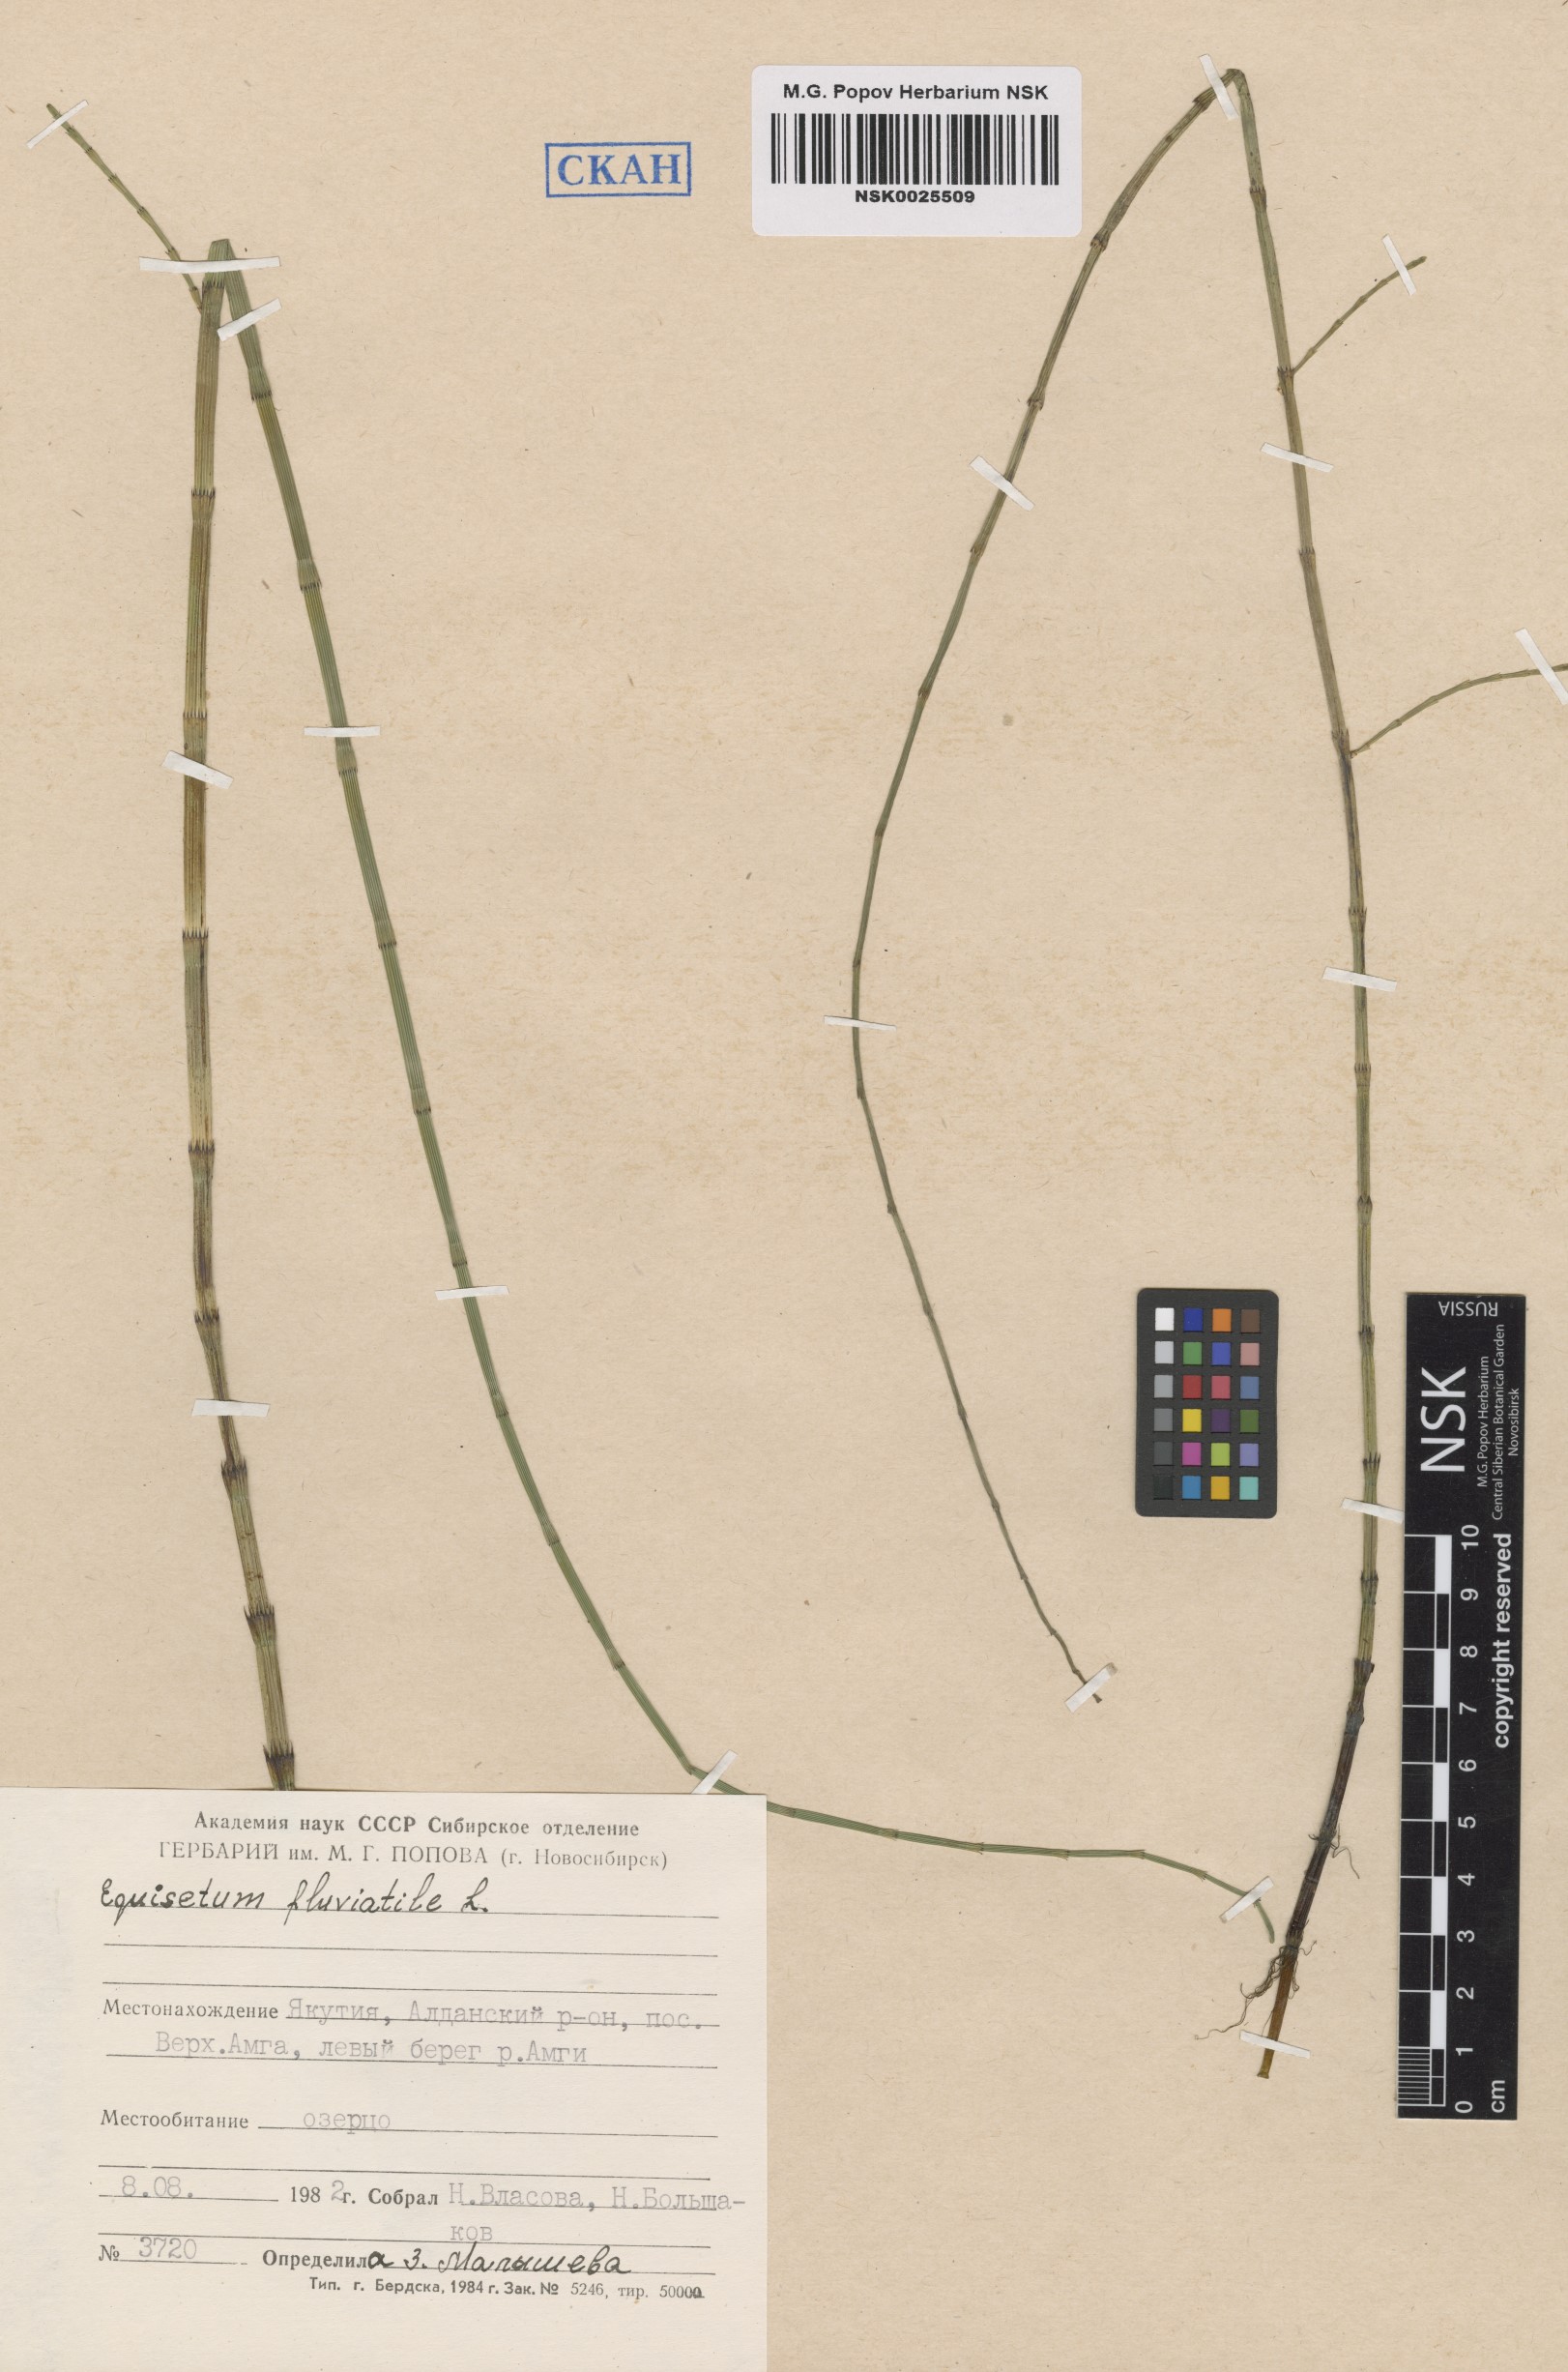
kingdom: Plantae
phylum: Tracheophyta
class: Polypodiopsida
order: Equisetales
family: Equisetaceae
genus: Equisetum
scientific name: Equisetum fluviatile
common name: Water horsetail
